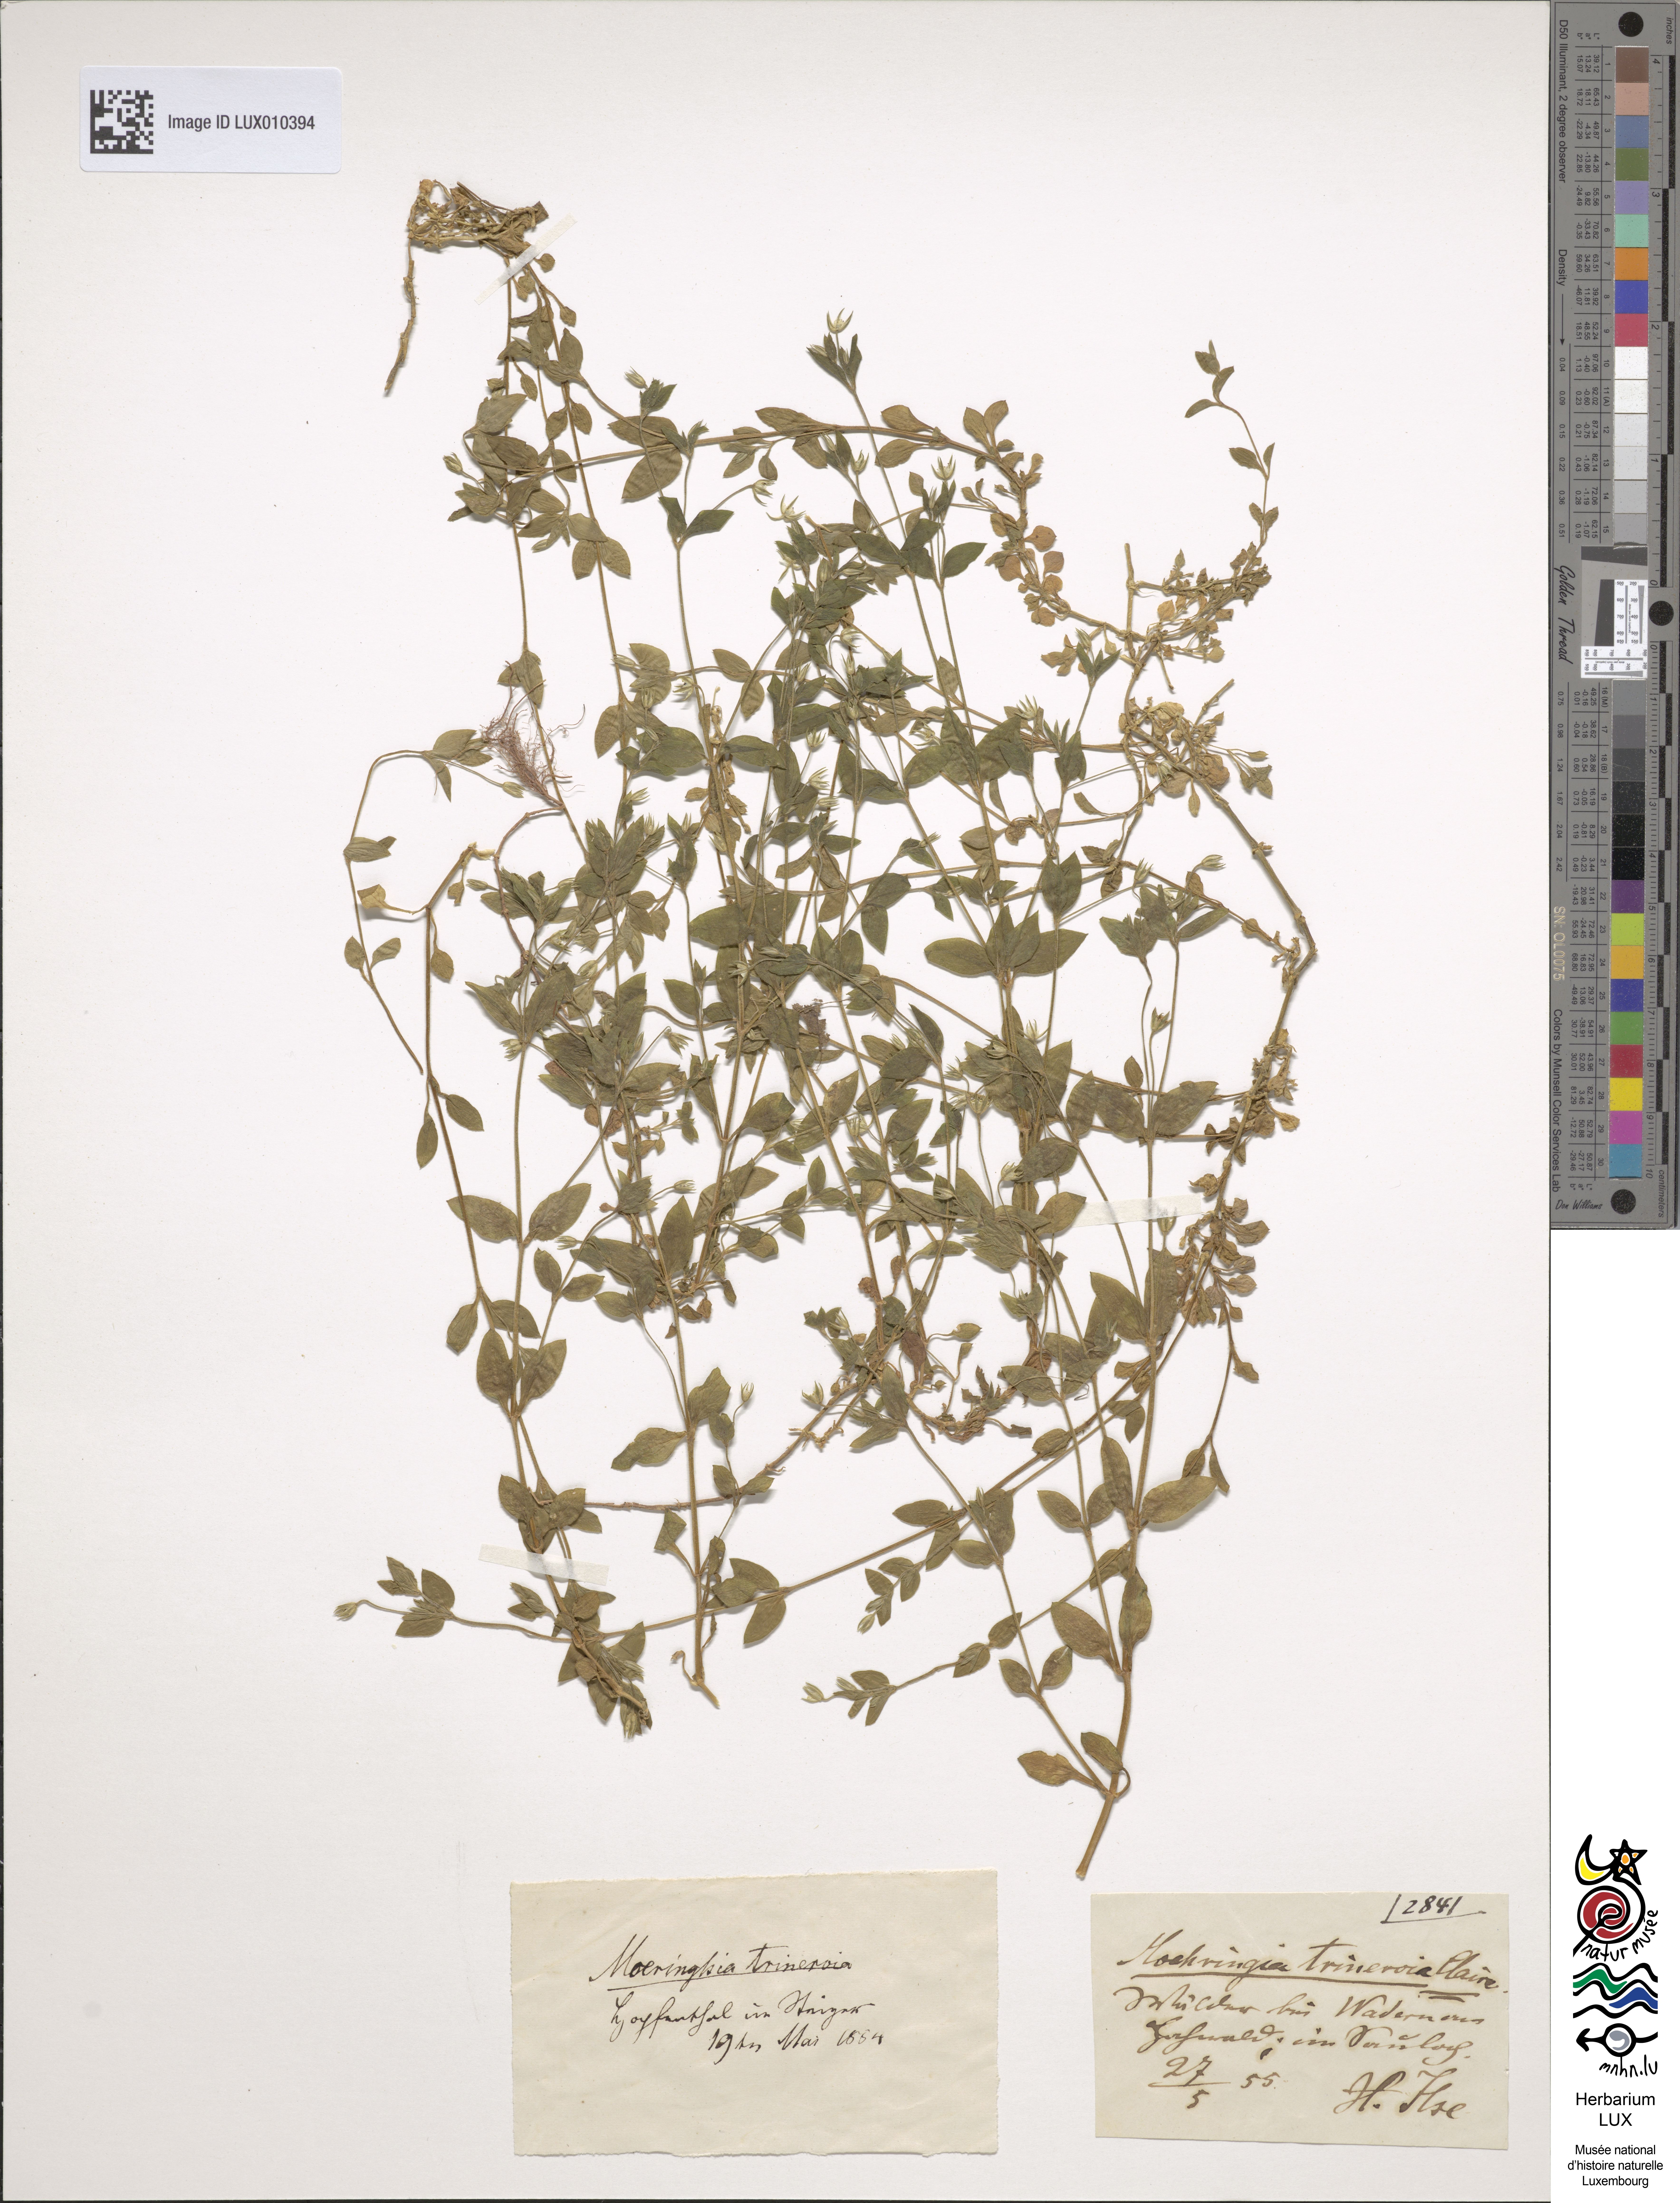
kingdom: Plantae
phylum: Tracheophyta
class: Magnoliopsida
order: Caryophyllales
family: Caryophyllaceae
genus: Moehringia
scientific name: Moehringia trinervia
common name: Three-nerved sandwort
